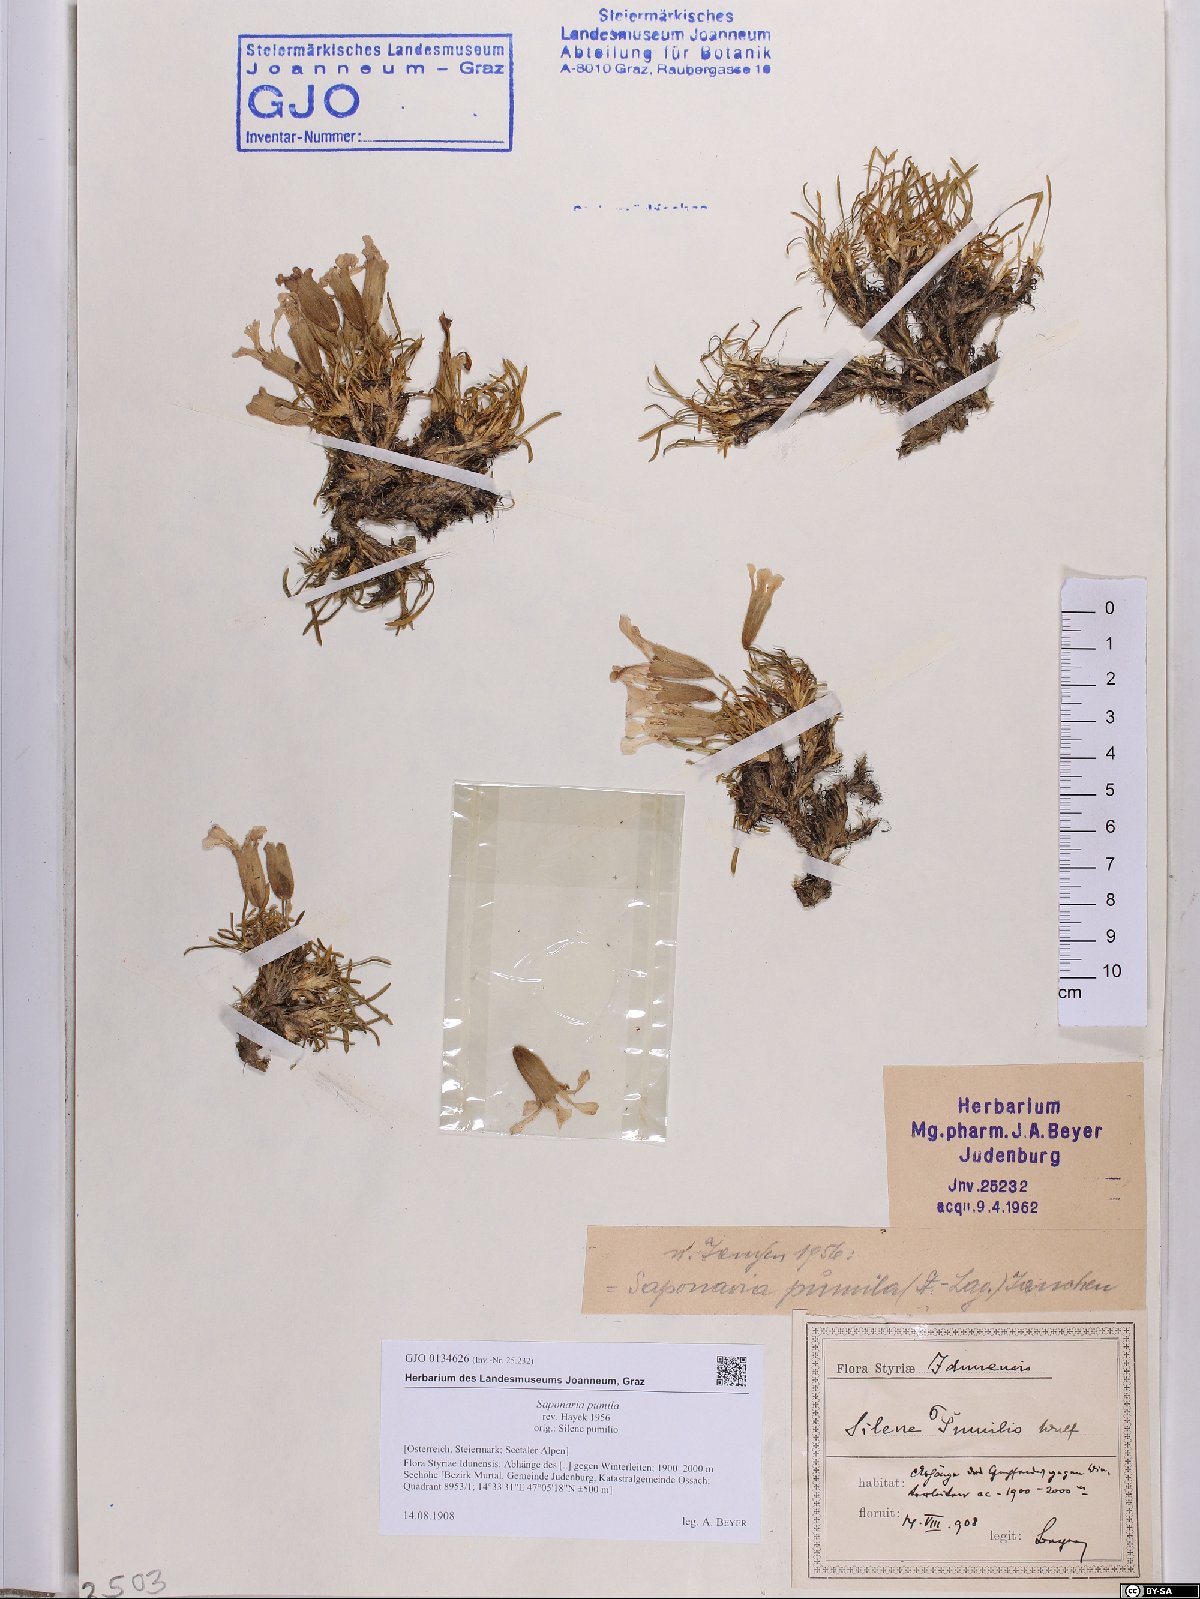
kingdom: Plantae
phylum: Tracheophyta
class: Magnoliopsida
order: Caryophyllales
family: Caryophyllaceae
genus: Saponaria
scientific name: Saponaria pumila
